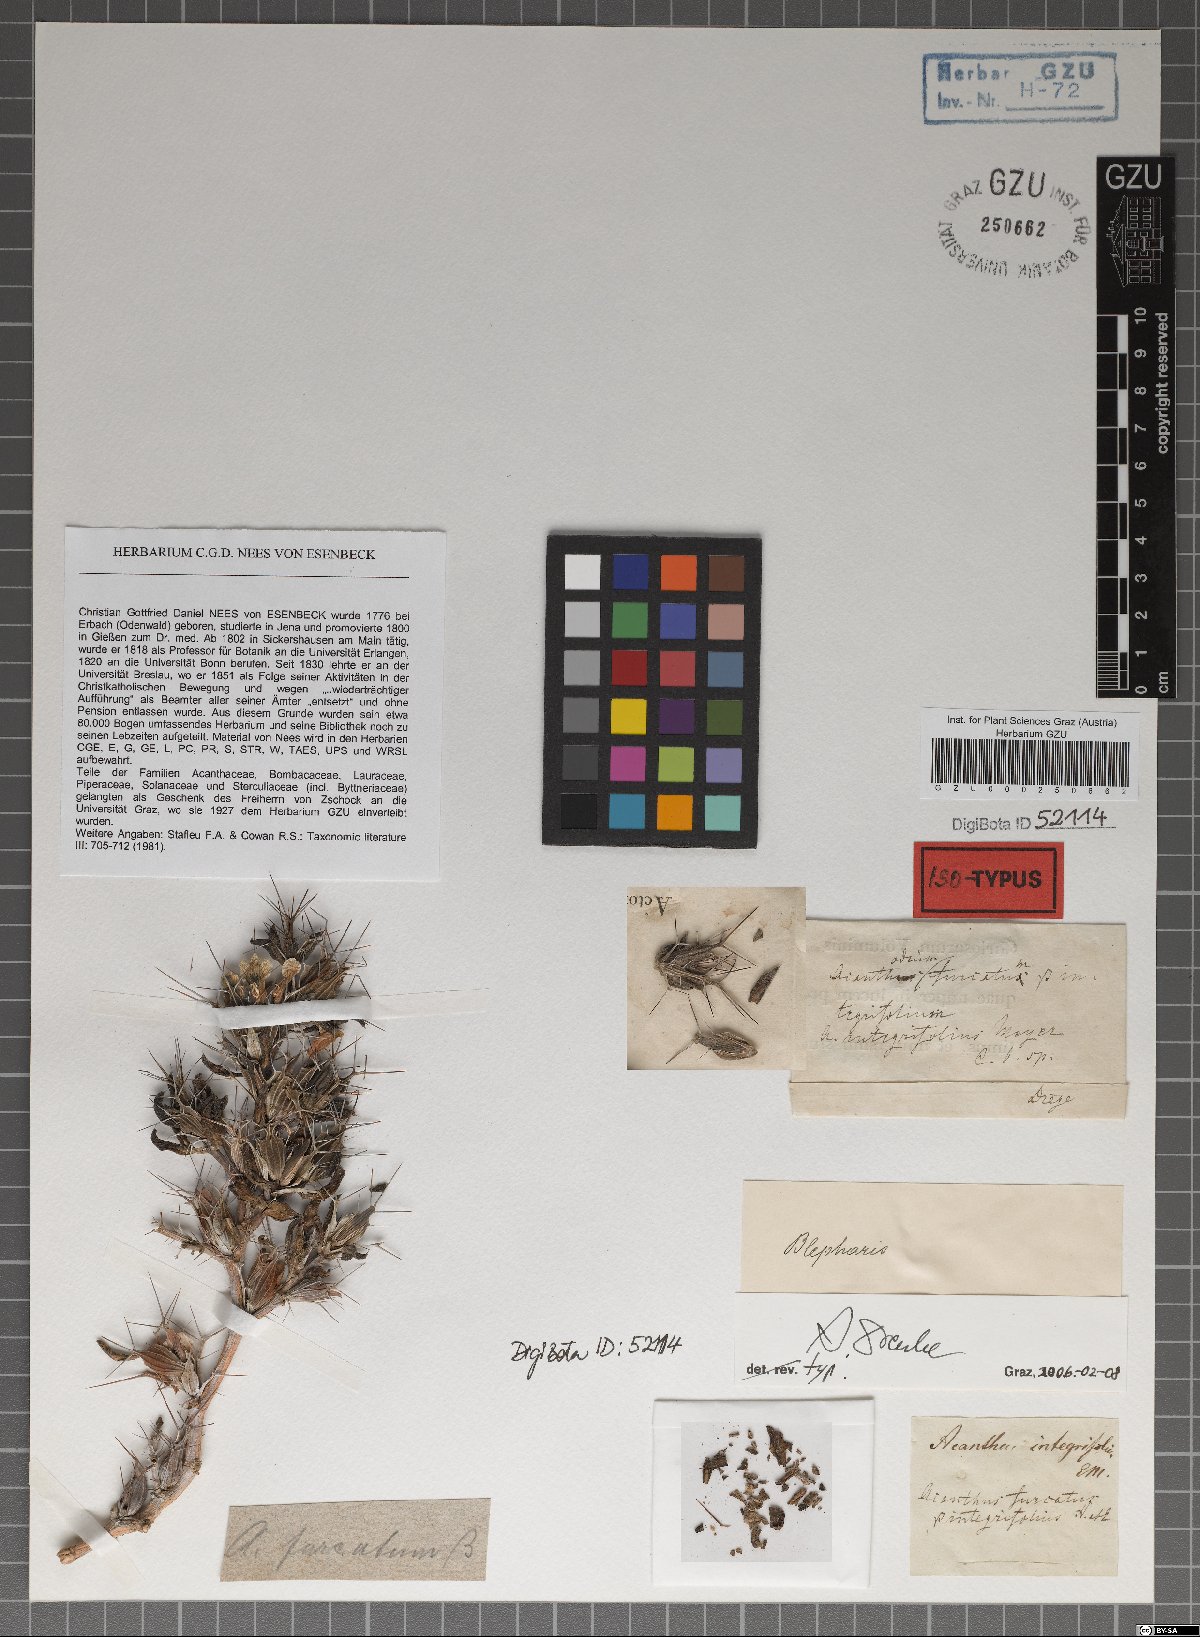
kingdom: Plantae
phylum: Tracheophyta
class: Magnoliopsida
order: Lamiales
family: Acanthaceae
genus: Blepharis
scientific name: Blepharis furcata
